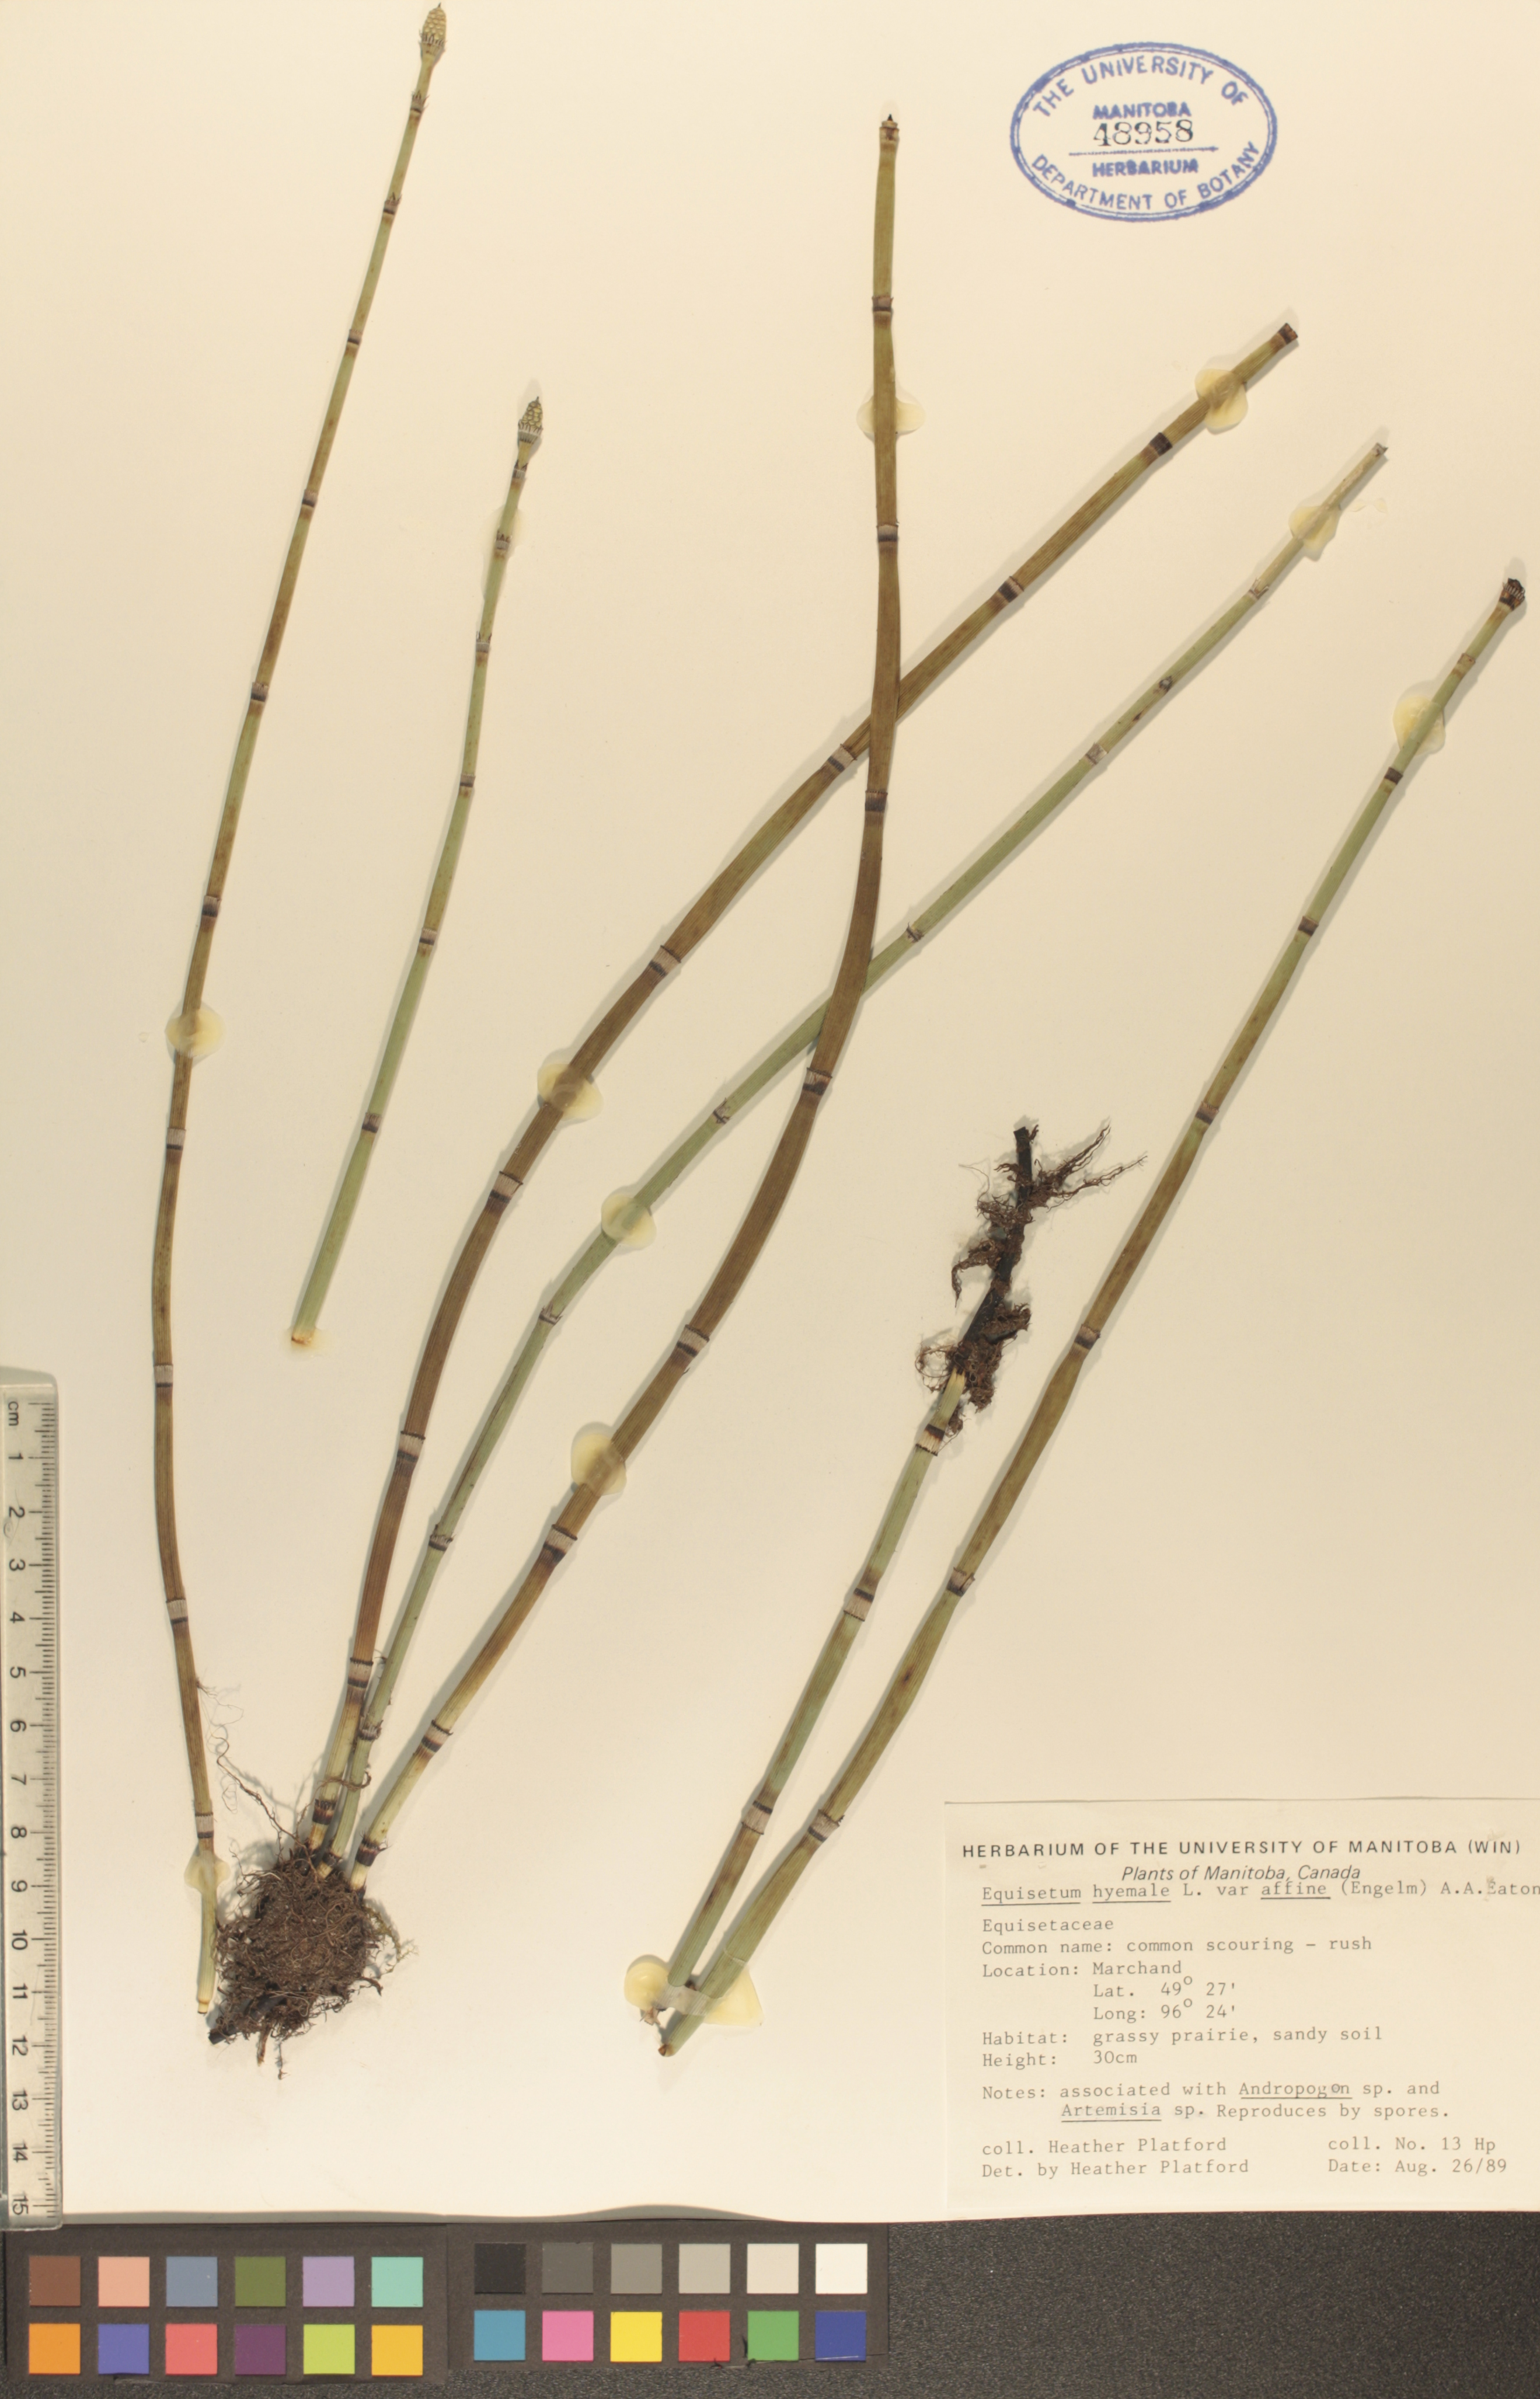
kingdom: Plantae
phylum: Tracheophyta
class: Polypodiopsida
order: Equisetales
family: Equisetaceae
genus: Equisetum
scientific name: Equisetum praealtum
